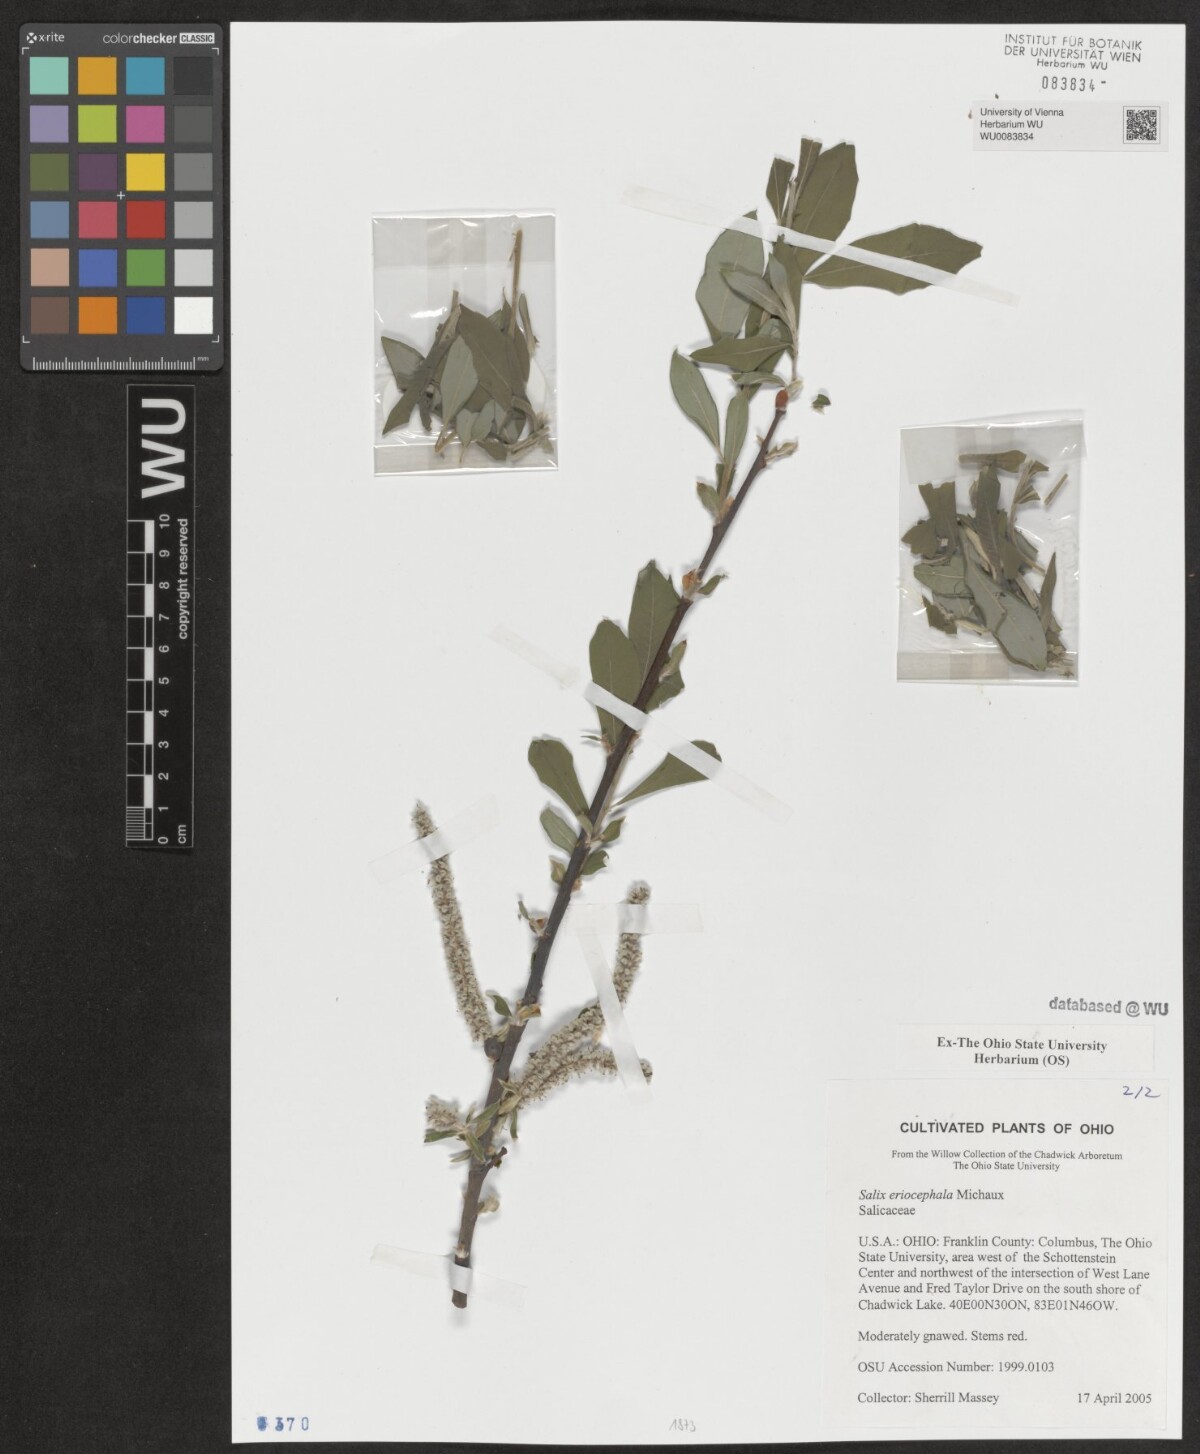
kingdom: Plantae
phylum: Tracheophyta
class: Magnoliopsida
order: Malpighiales
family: Salicaceae
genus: Salix
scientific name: Salix eriocephala
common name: Heart-leaved willow
